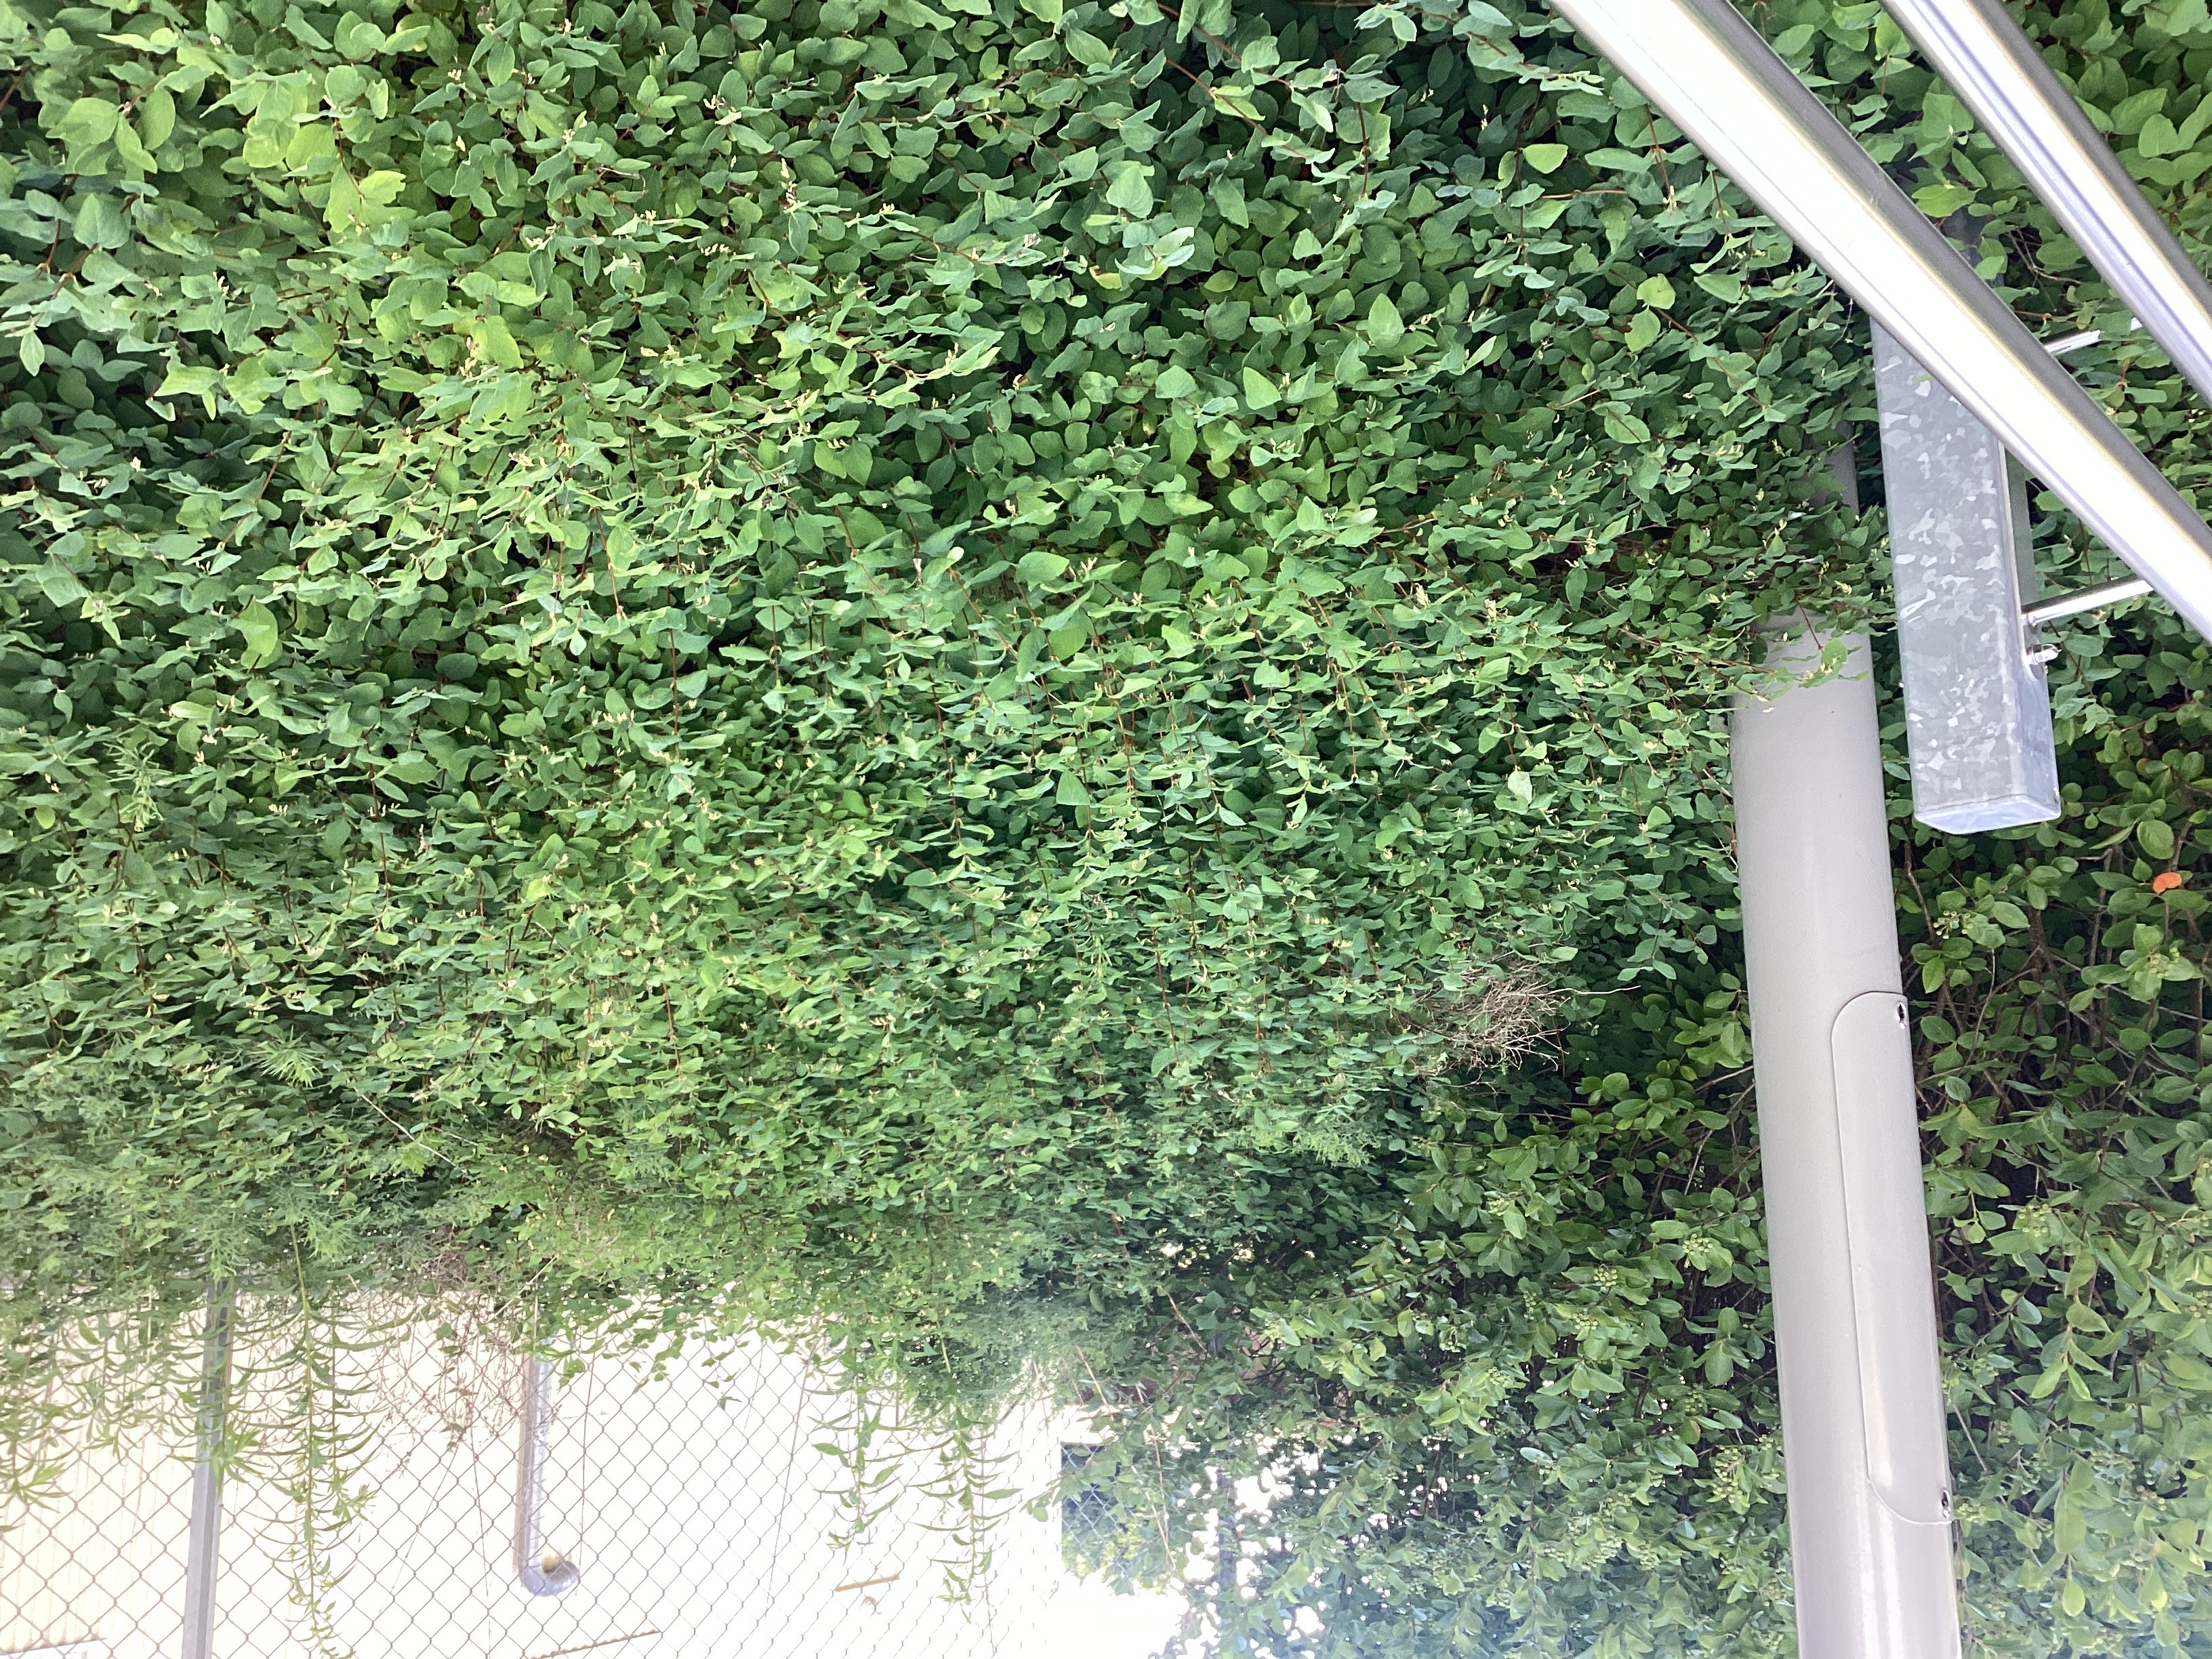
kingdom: Plantae
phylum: Tracheophyta
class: Magnoliopsida
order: Dipsacales
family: Caprifoliaceae
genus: Symphoricarpos
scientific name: Symphoricarpos albus
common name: snøbær
